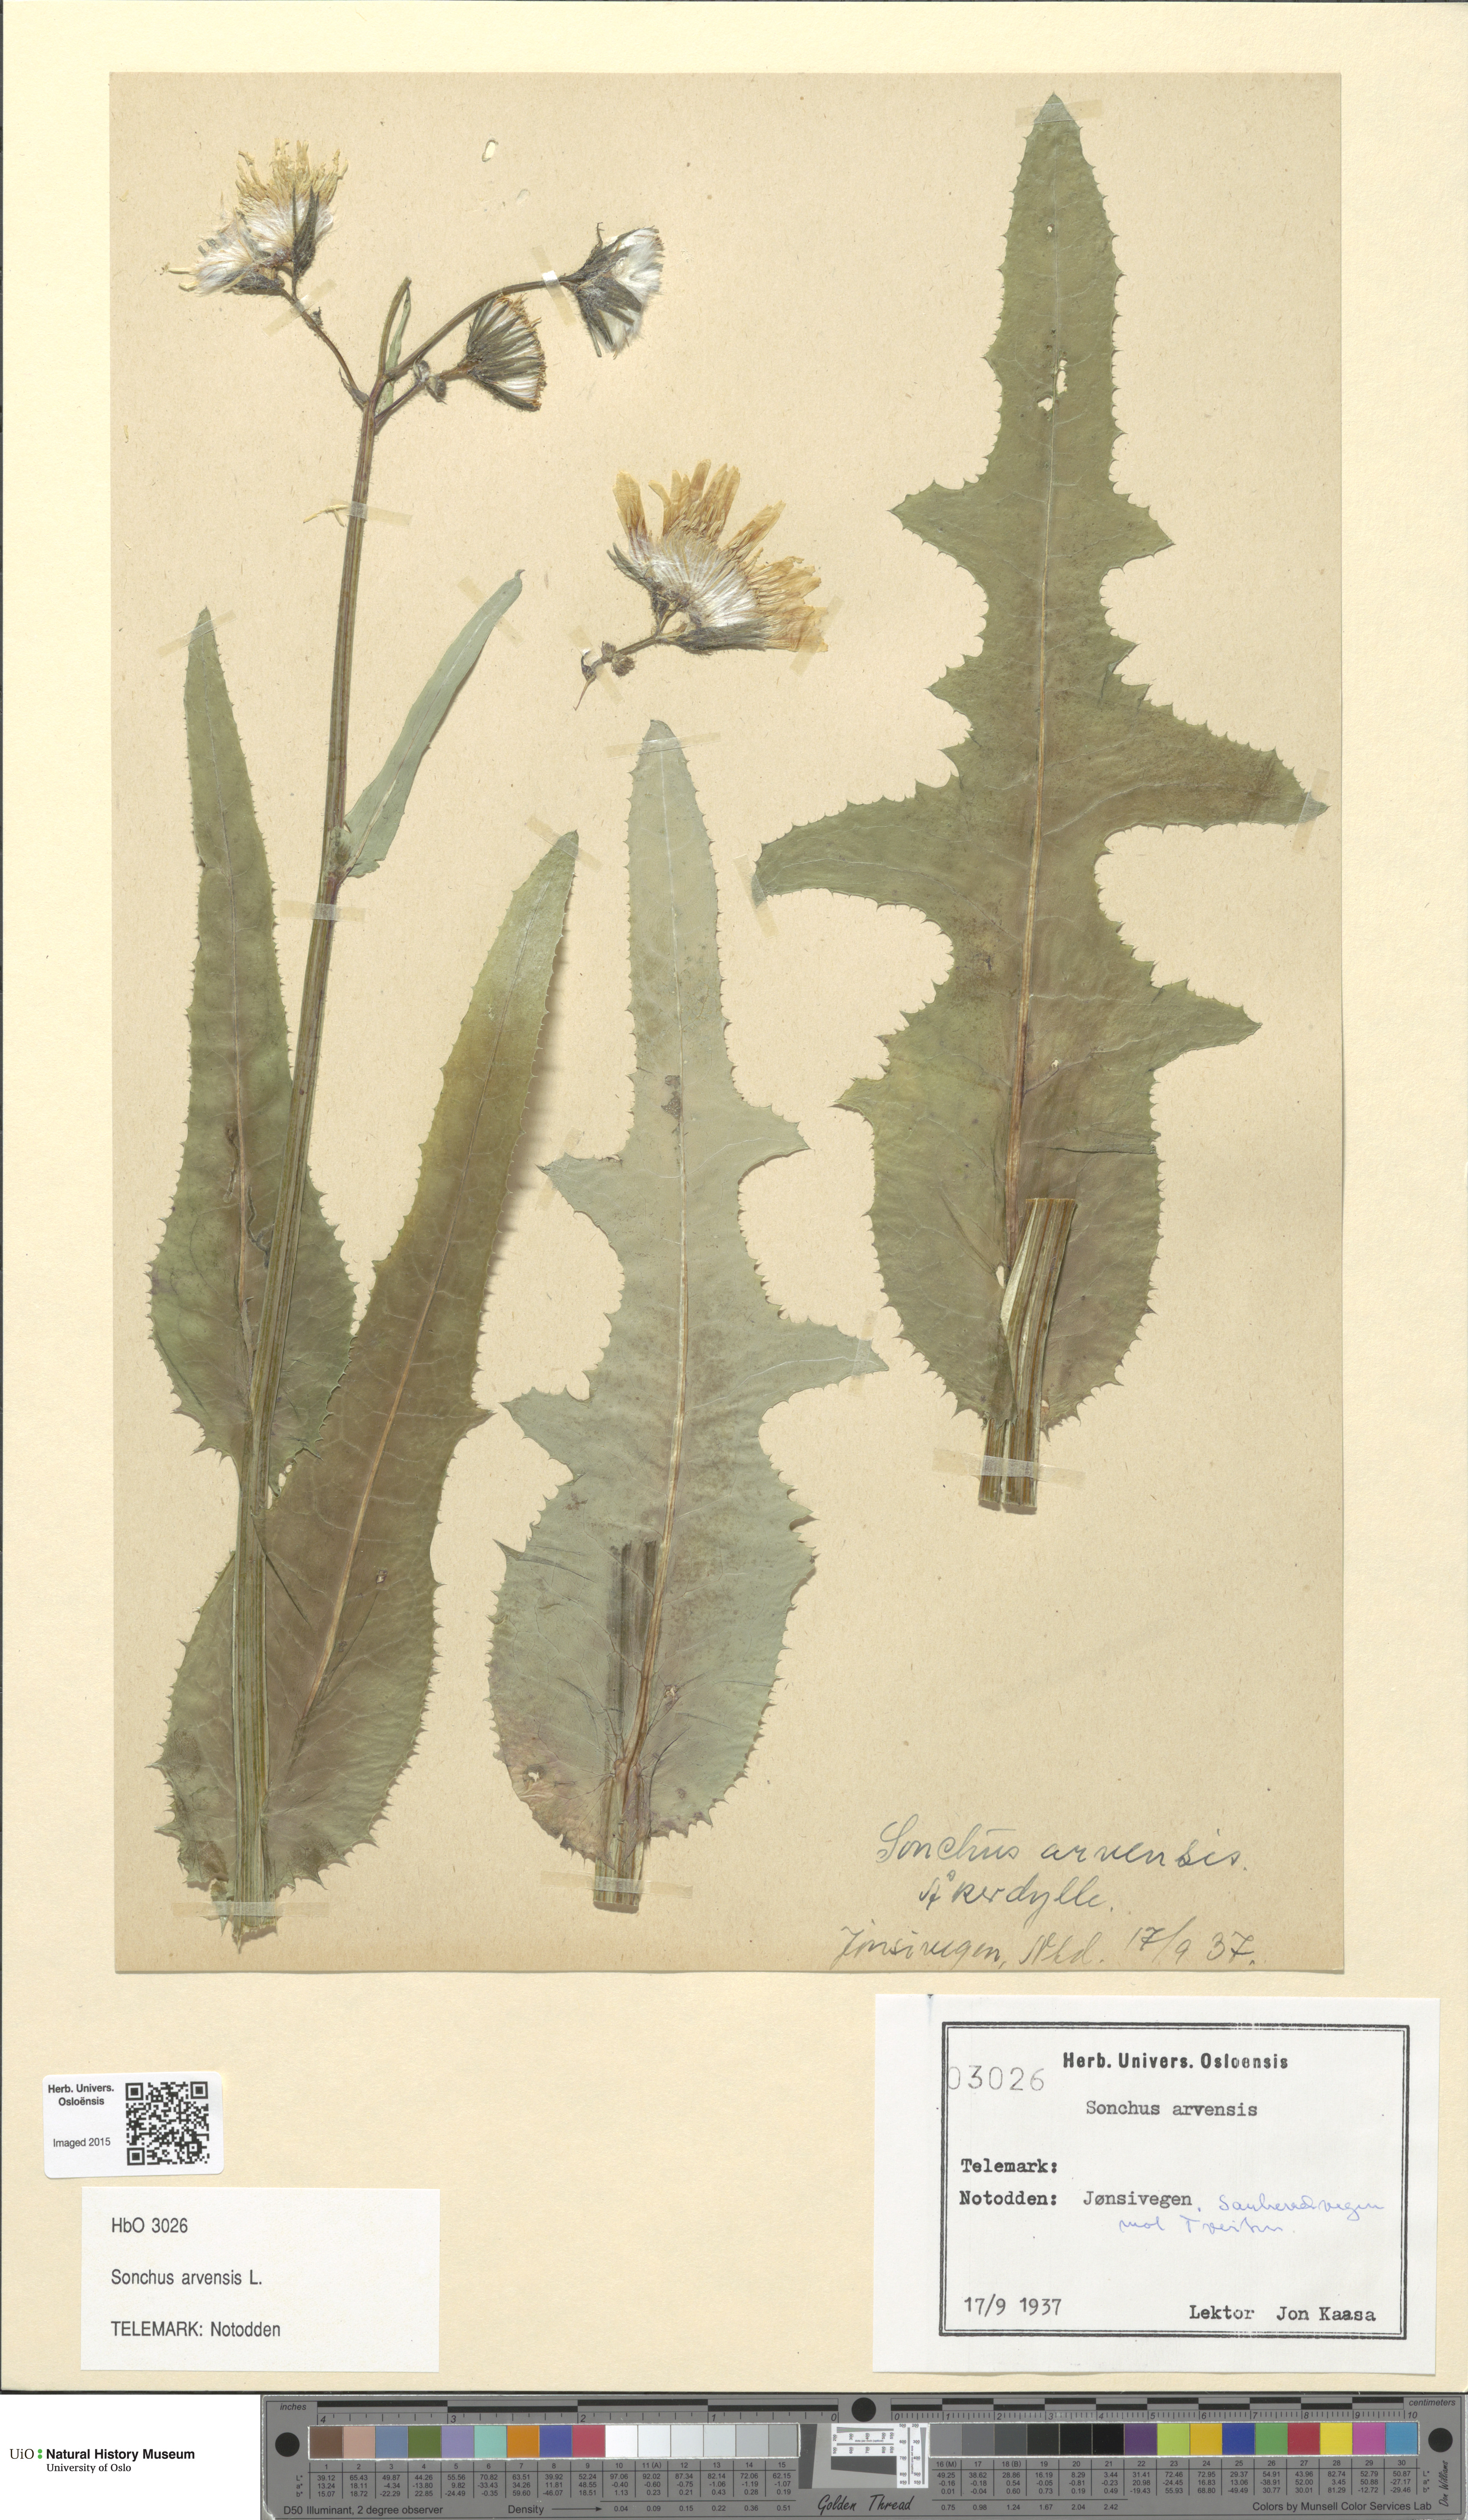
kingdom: Plantae
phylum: Tracheophyta
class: Magnoliopsida
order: Asterales
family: Asteraceae
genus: Sonchus
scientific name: Sonchus arvensis
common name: Perennial sow-thistle
